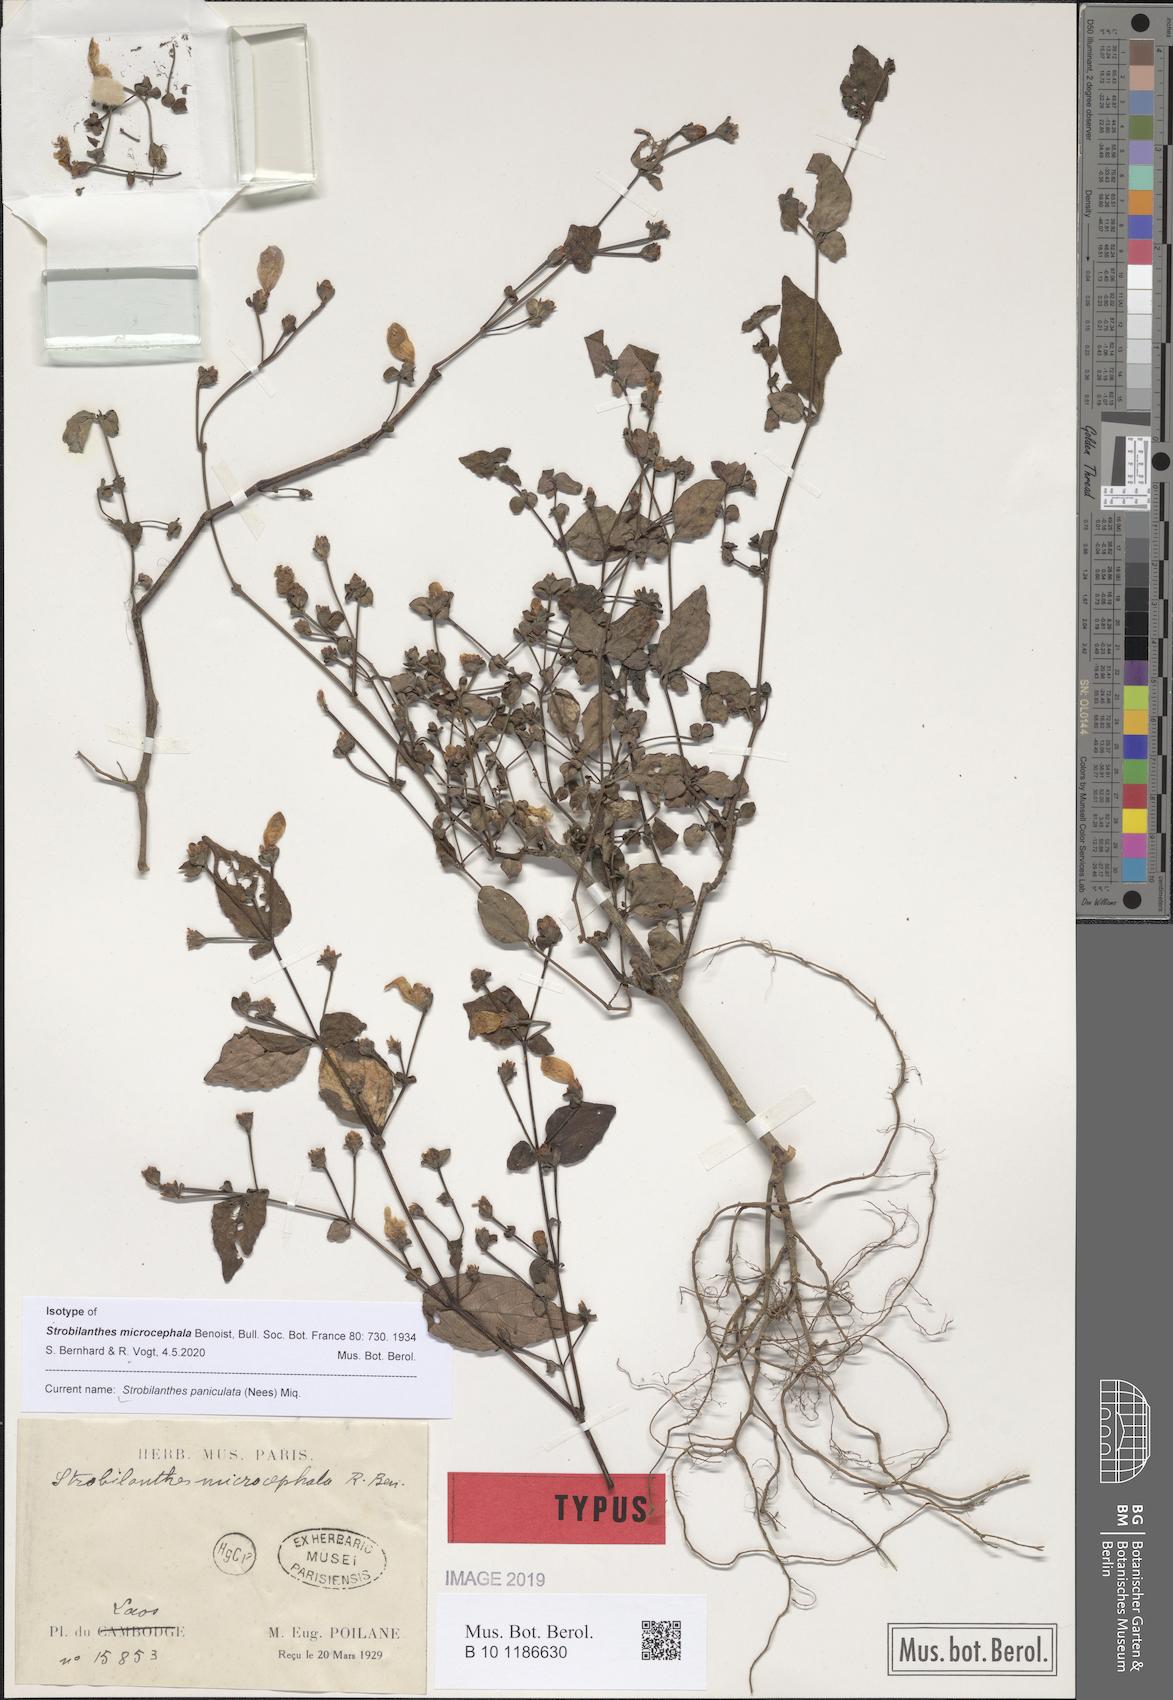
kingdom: Plantae
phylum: Tracheophyta
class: Magnoliopsida
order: Lamiales
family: Acanthaceae
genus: Strobilanthes
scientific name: Strobilanthes paniculata
